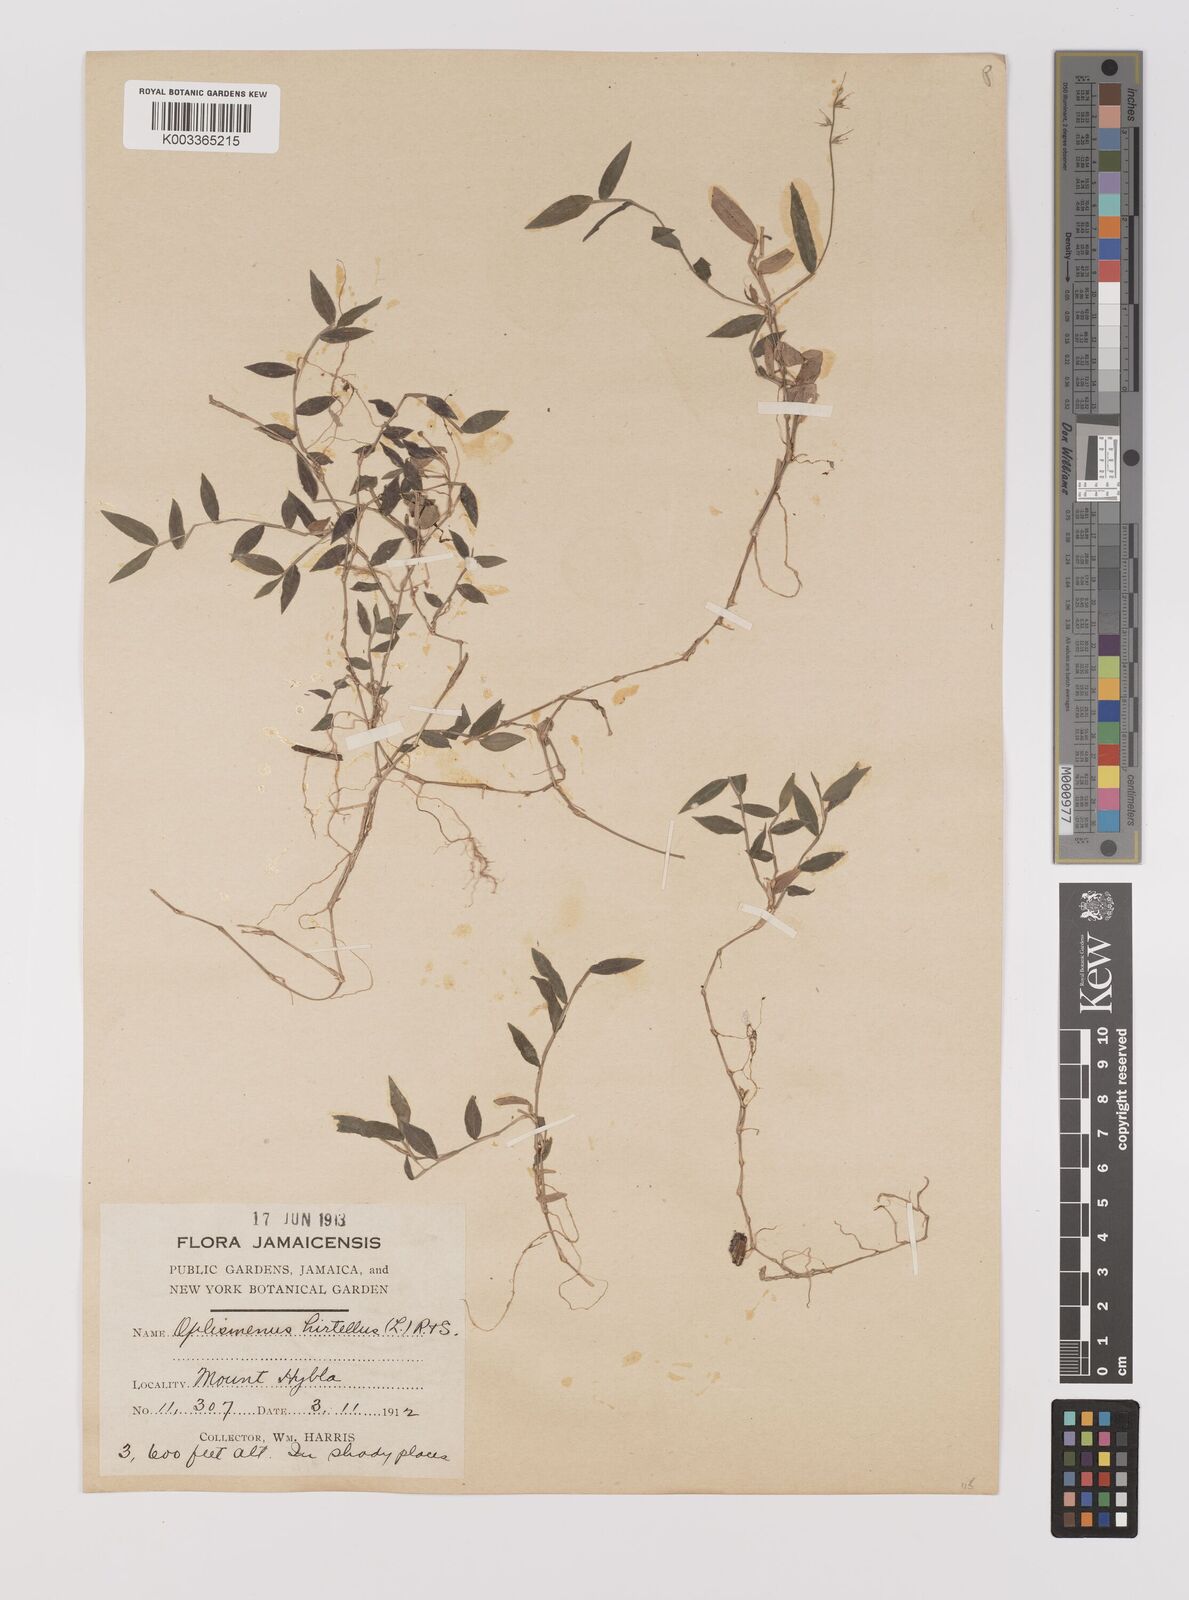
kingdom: Plantae
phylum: Tracheophyta
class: Liliopsida
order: Poales
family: Poaceae
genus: Oplismenus
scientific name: Oplismenus hirtellus
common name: Basketgrass
